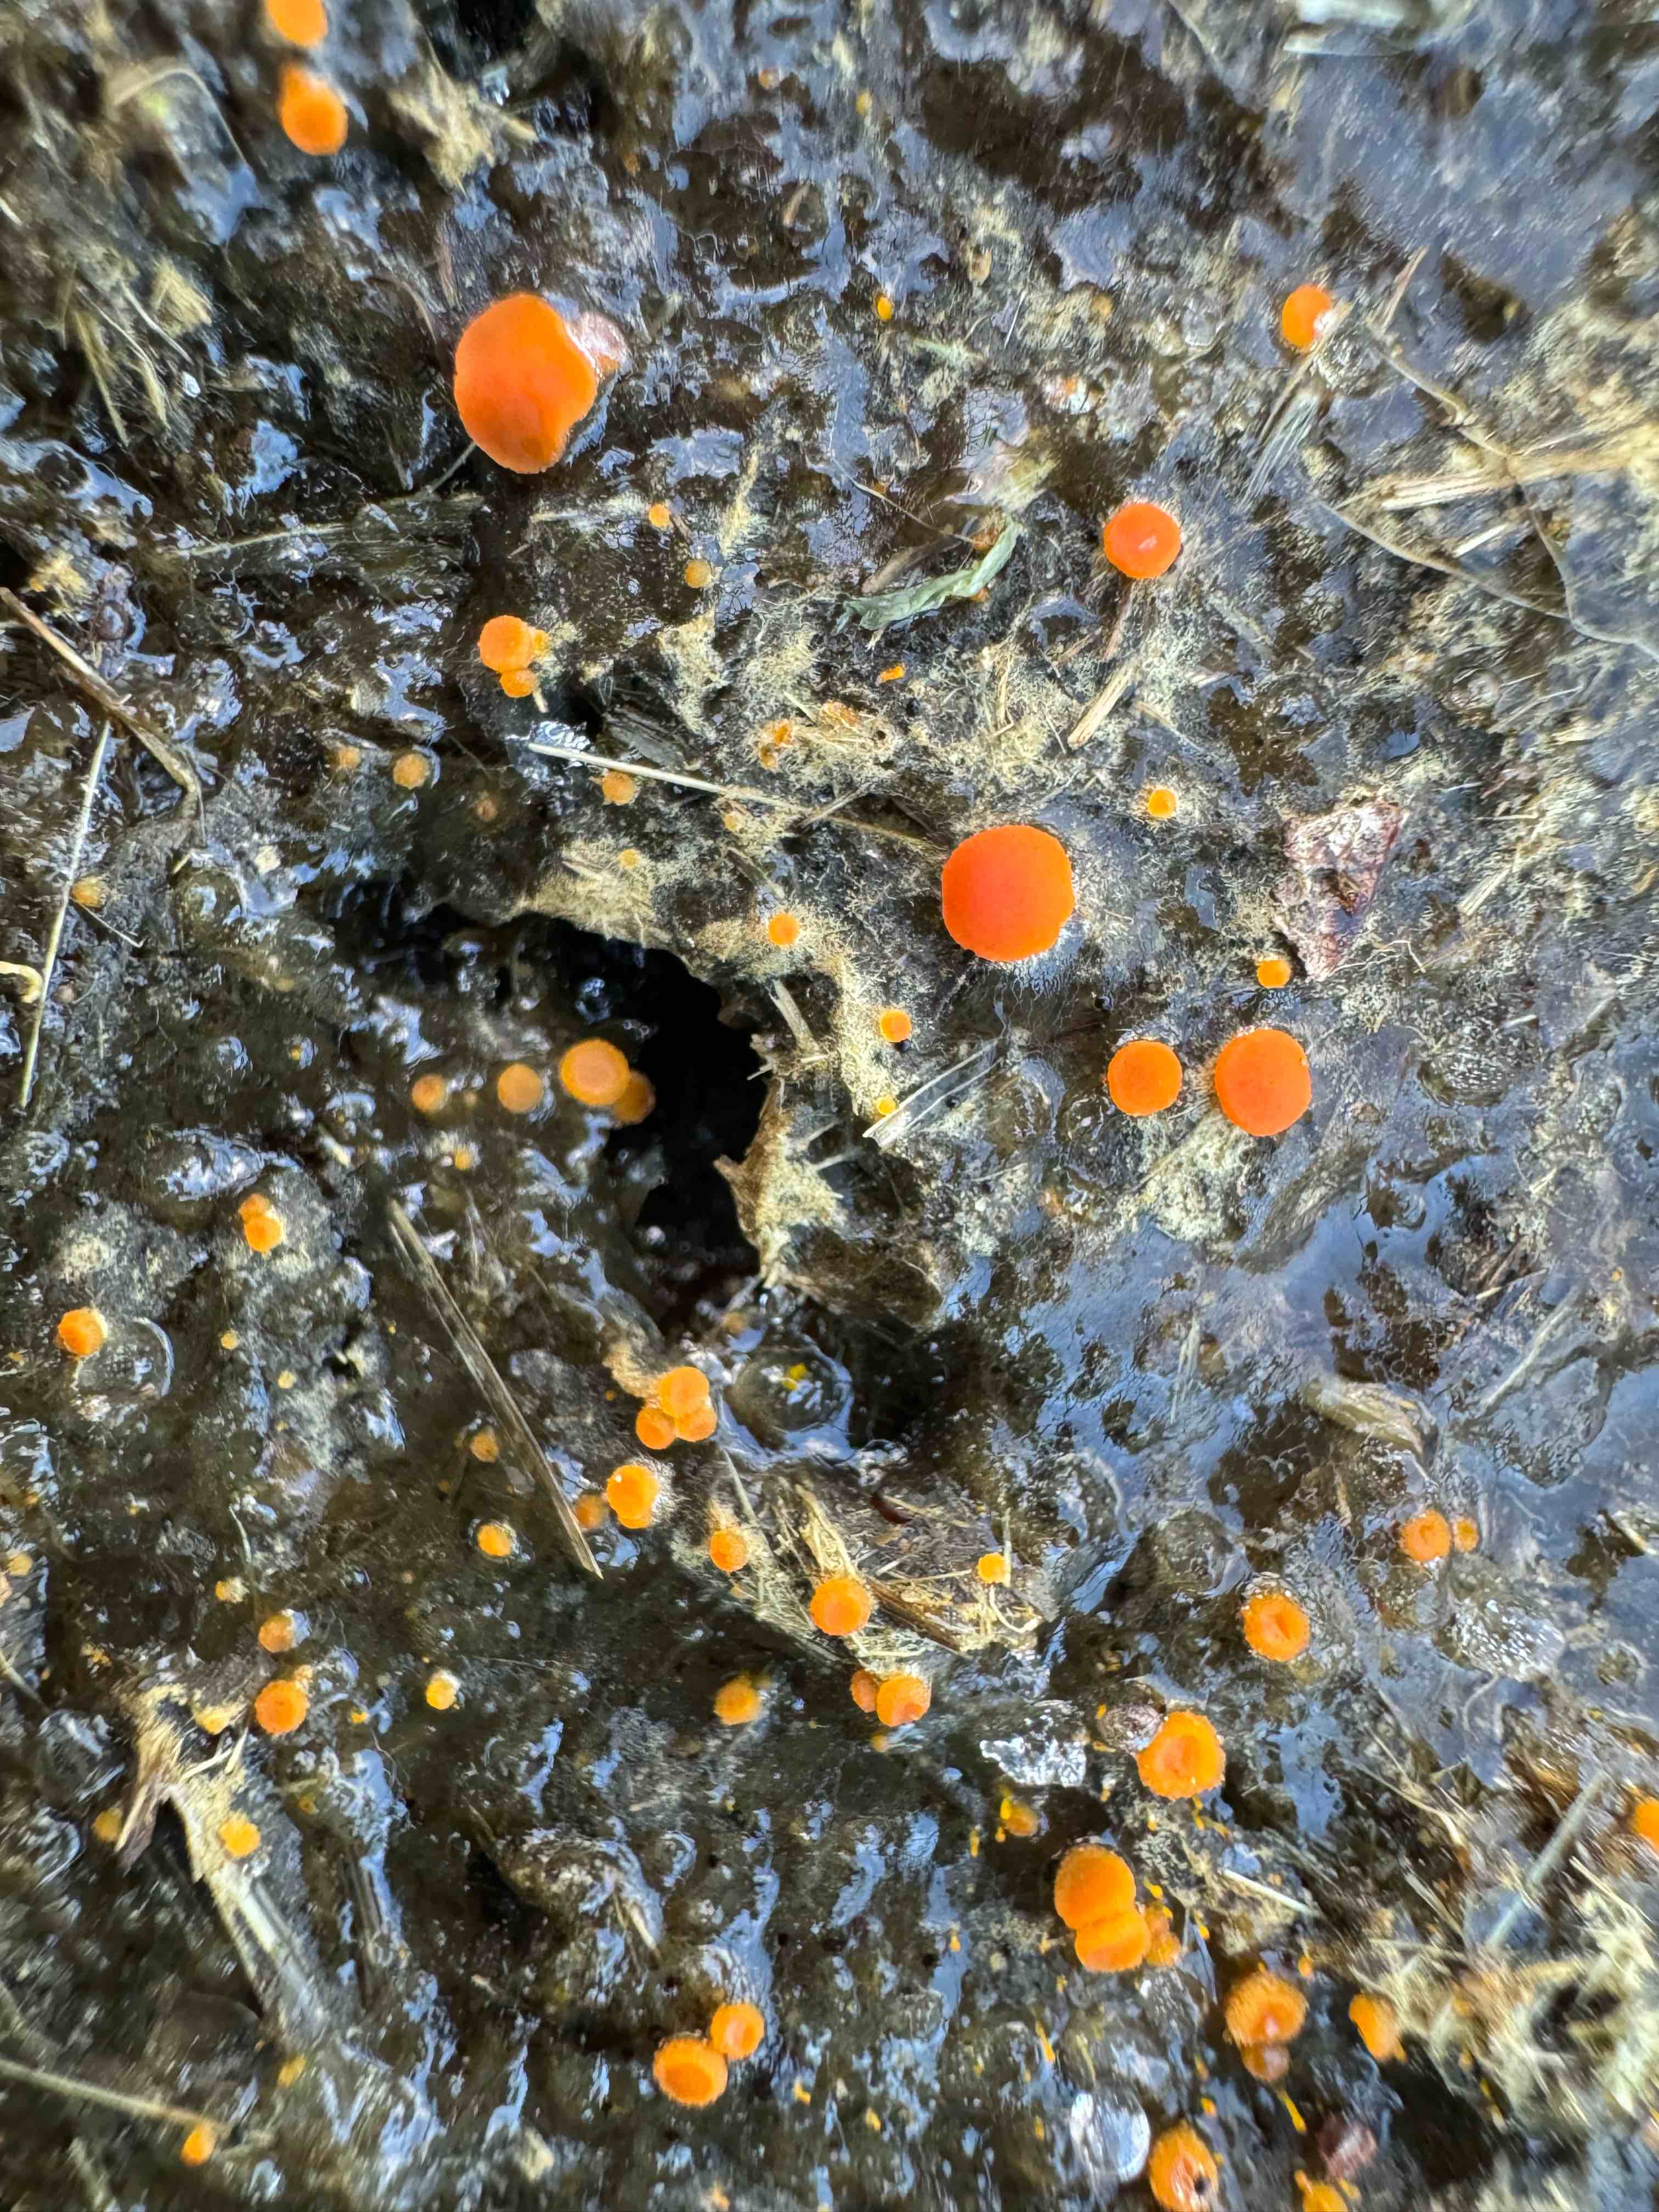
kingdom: Fungi
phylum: Ascomycota
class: Pezizomycetes
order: Pezizales
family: Pyronemataceae
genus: Cheilymenia
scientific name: Cheilymenia granulata
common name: møgbæger
